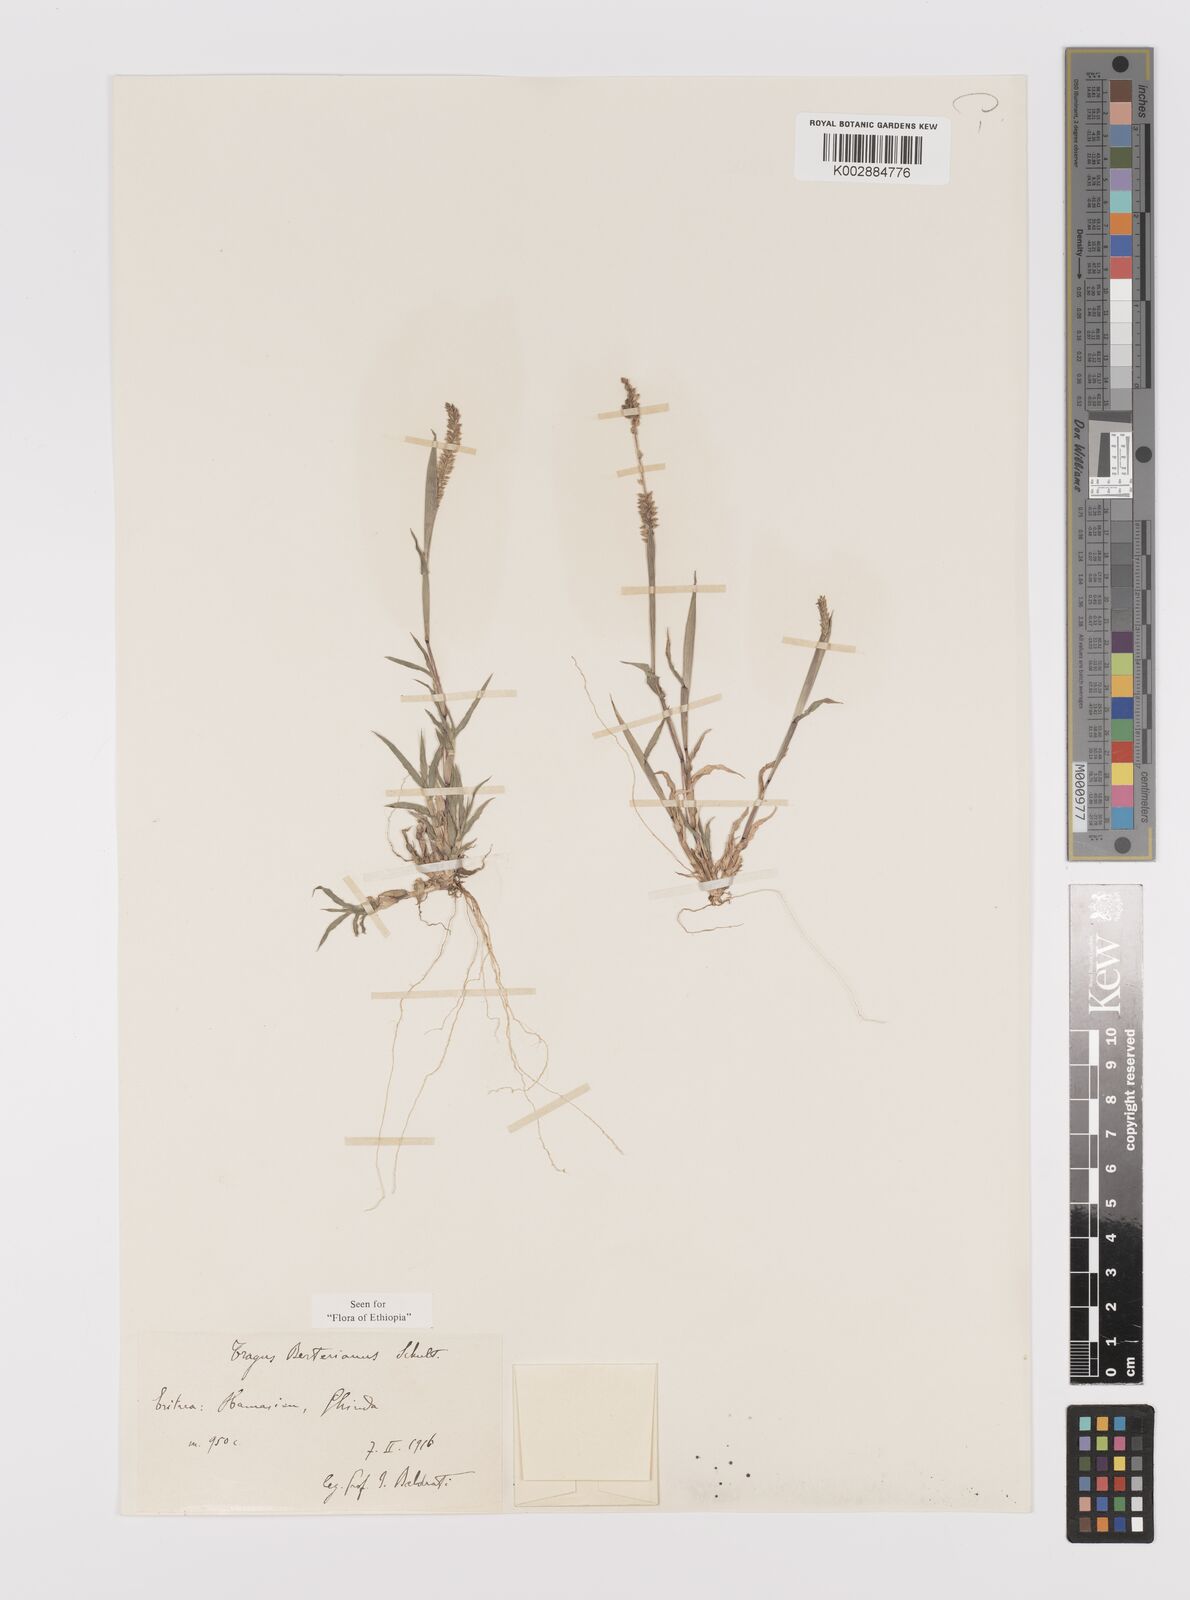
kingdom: Plantae
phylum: Tracheophyta
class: Liliopsida
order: Poales
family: Poaceae
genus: Tragus
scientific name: Tragus berteronianus
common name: African bur-grass
